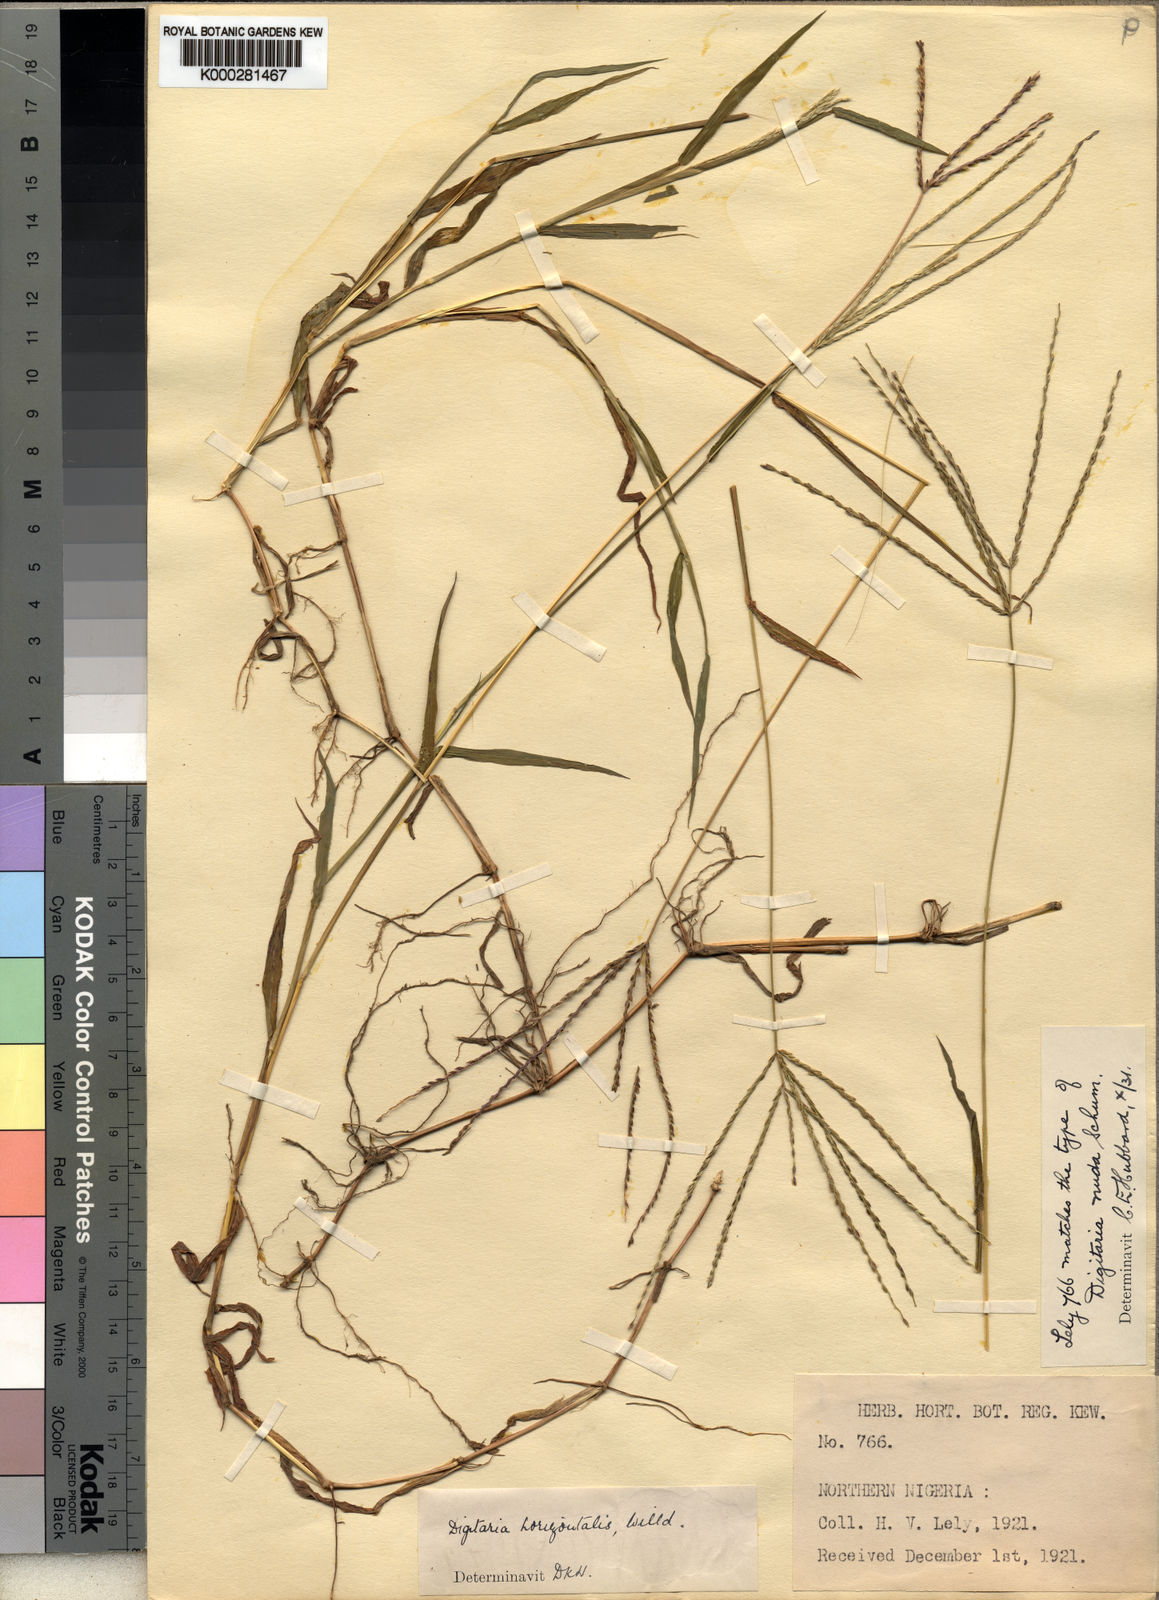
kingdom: Plantae
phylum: Tracheophyta
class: Liliopsida
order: Poales
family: Poaceae
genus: Digitaria
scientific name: Digitaria nuda
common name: Naked crabgrass
